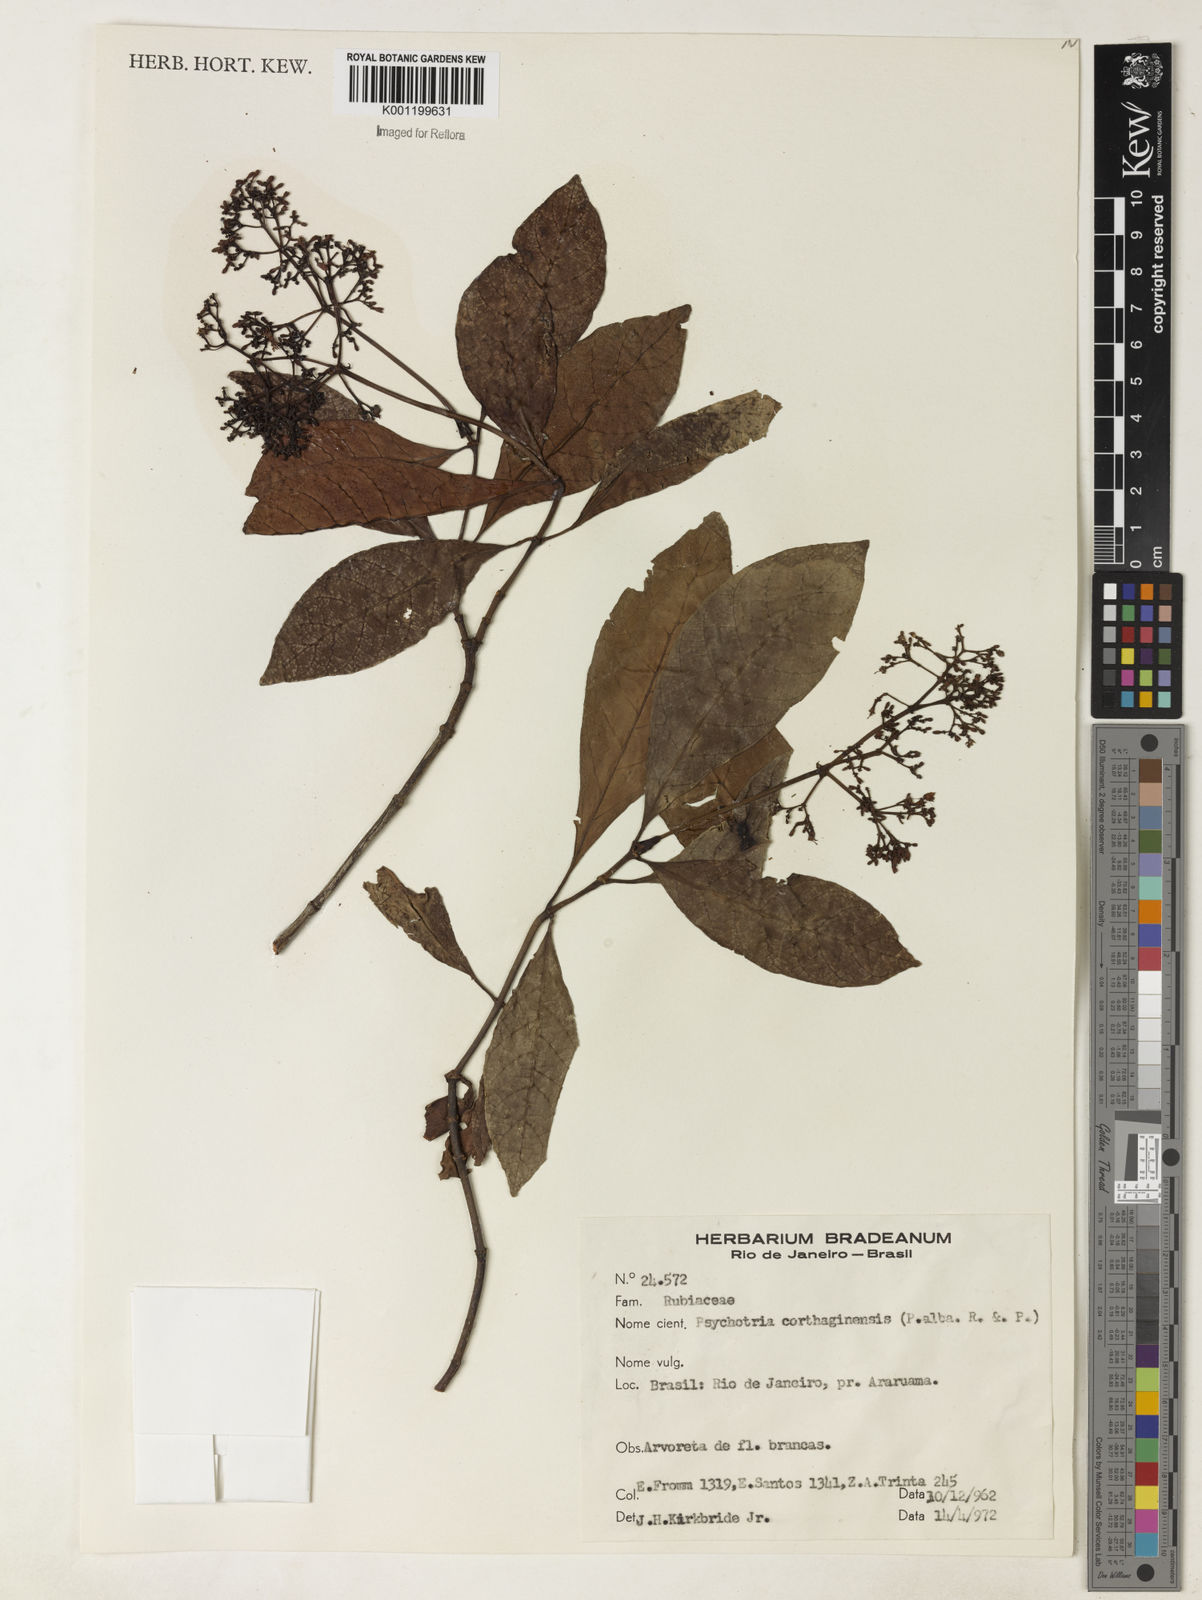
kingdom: Plantae
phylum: Tracheophyta
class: Magnoliopsida
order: Gentianales
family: Rubiaceae
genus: Psychotria
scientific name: Psychotria carthagenensis
